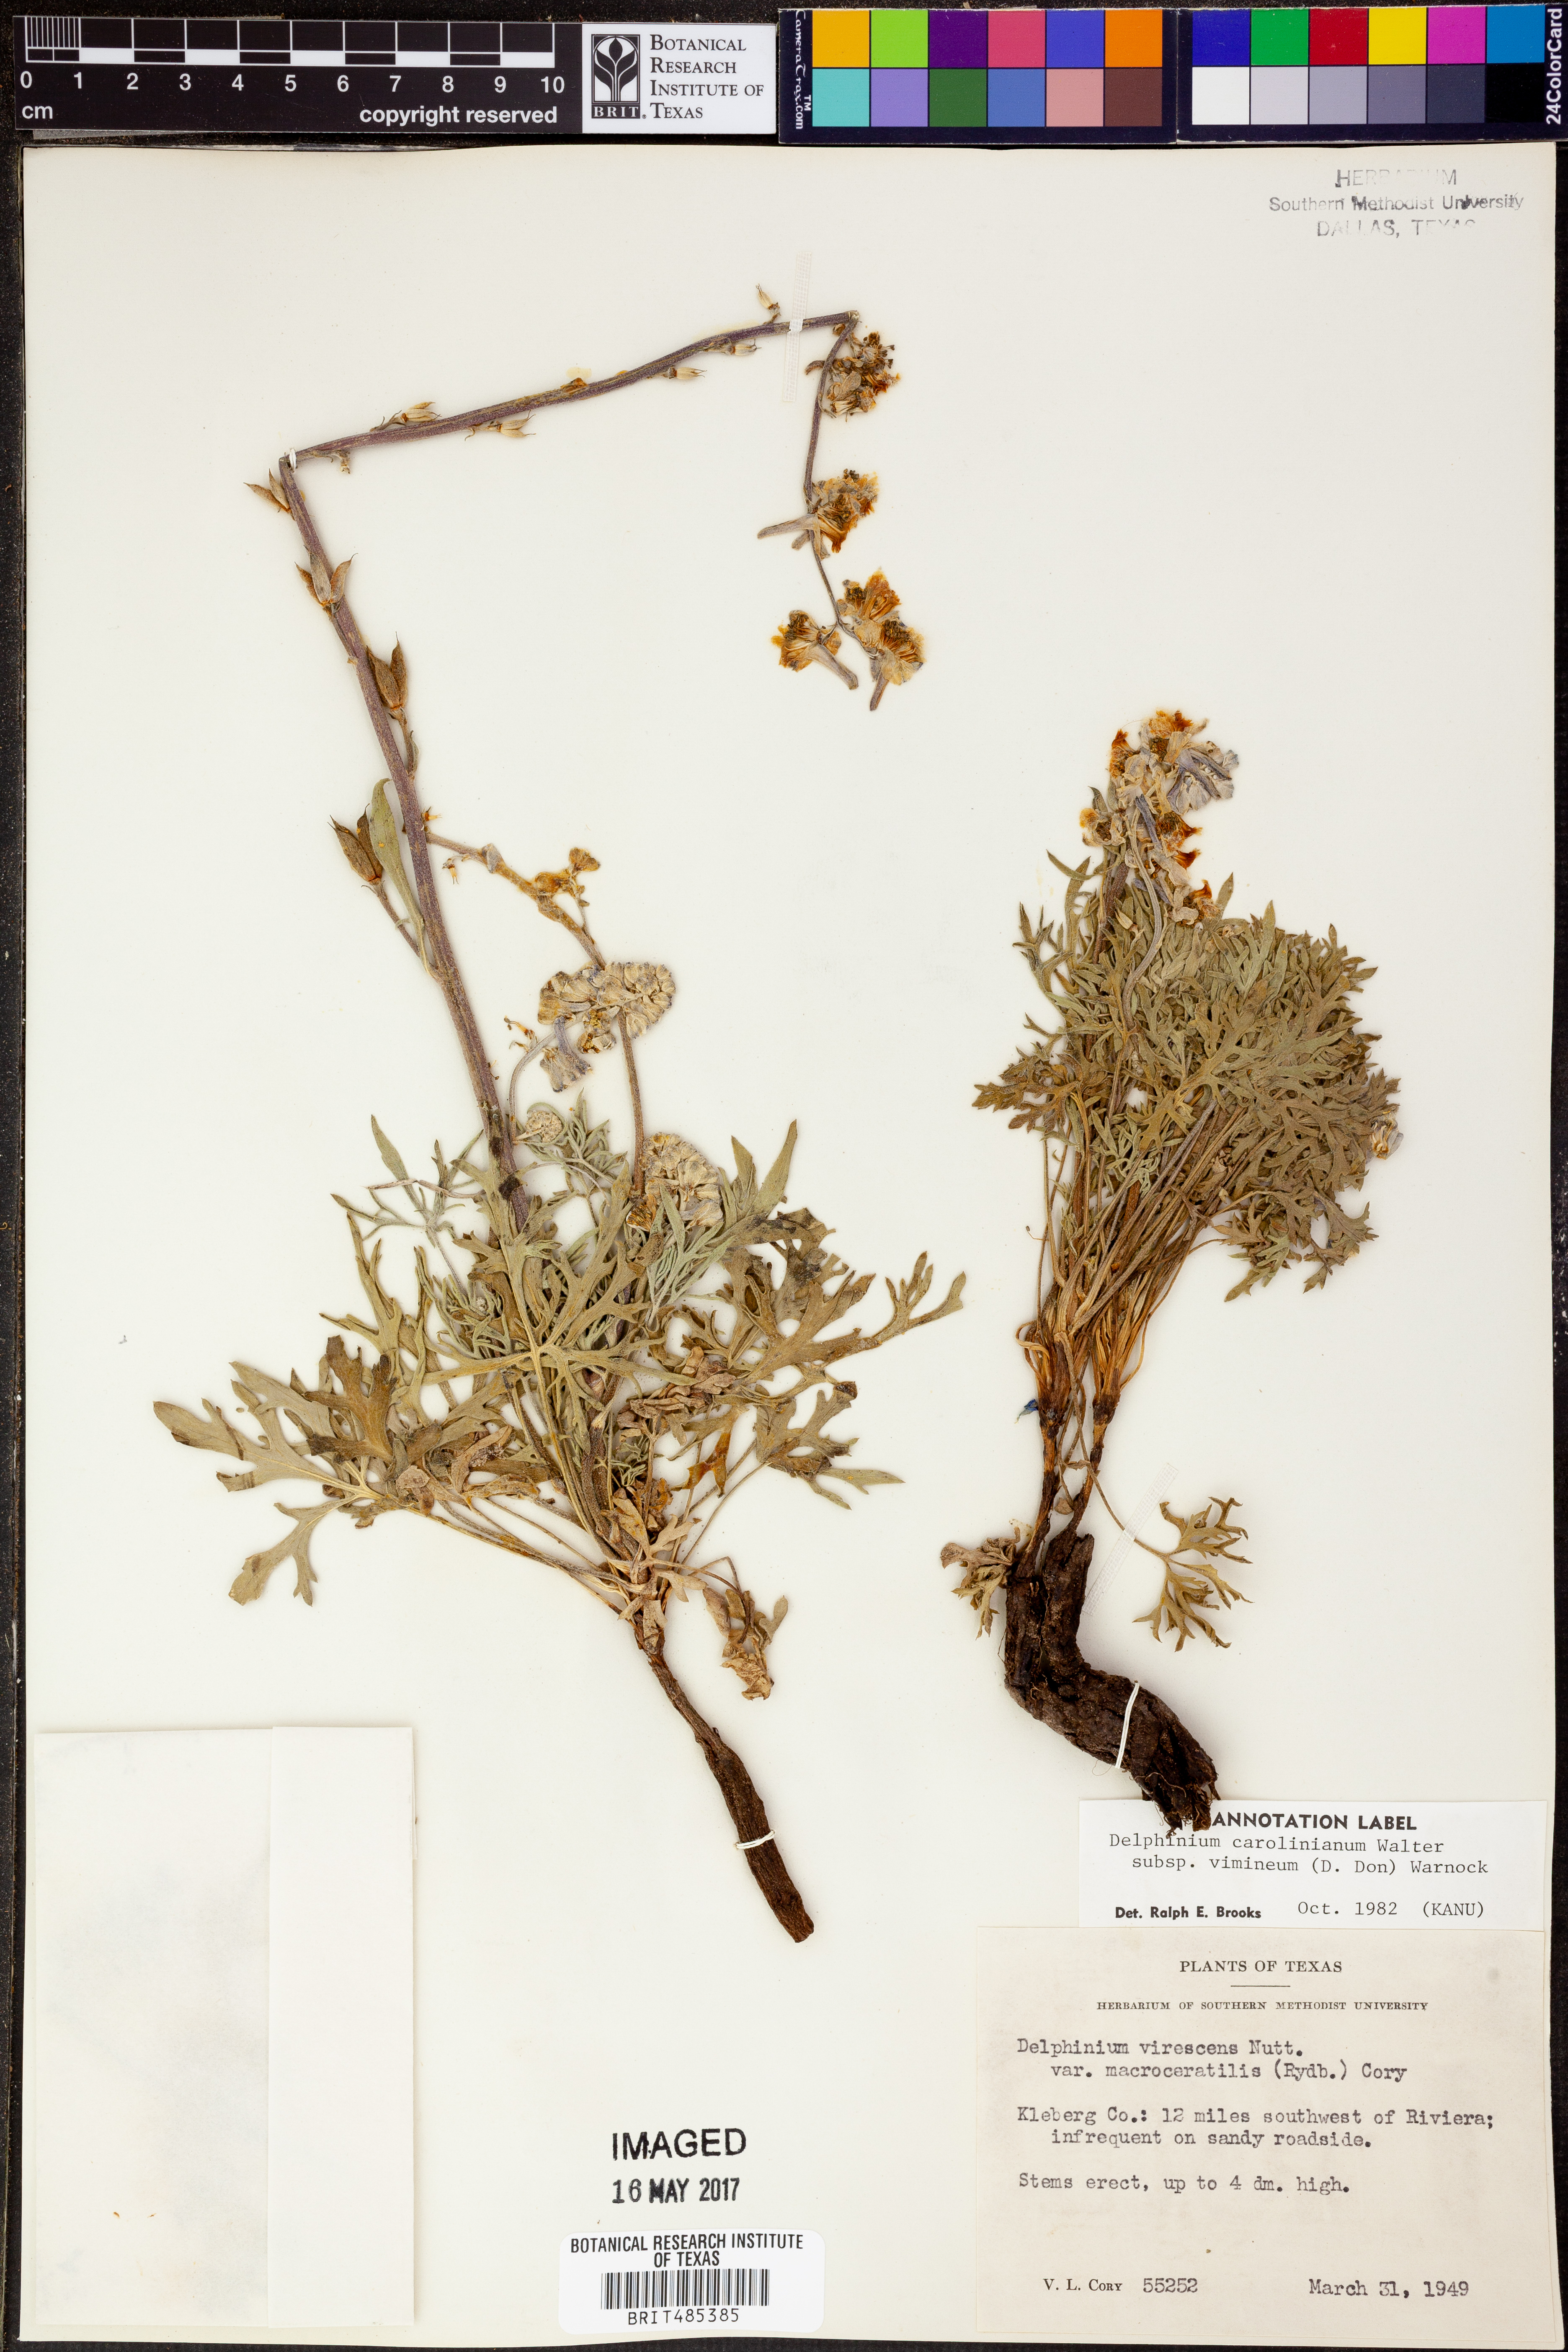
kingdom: Plantae
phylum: Tracheophyta
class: Magnoliopsida
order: Ranunculales
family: Ranunculaceae
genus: Delphinium
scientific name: Delphinium carolinianum
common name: Carolina larkspur
